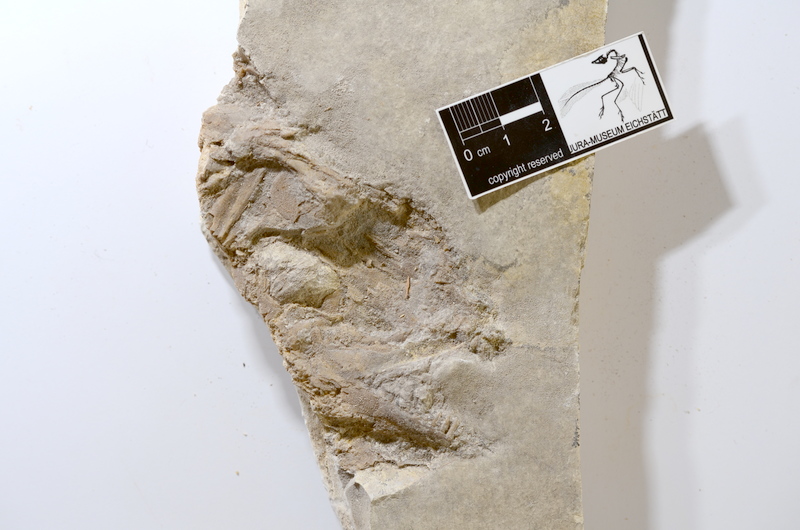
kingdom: Animalia
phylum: Chordata
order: Amiiformes
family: Amiidae
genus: Amiopsis
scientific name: Amiopsis lepidota
